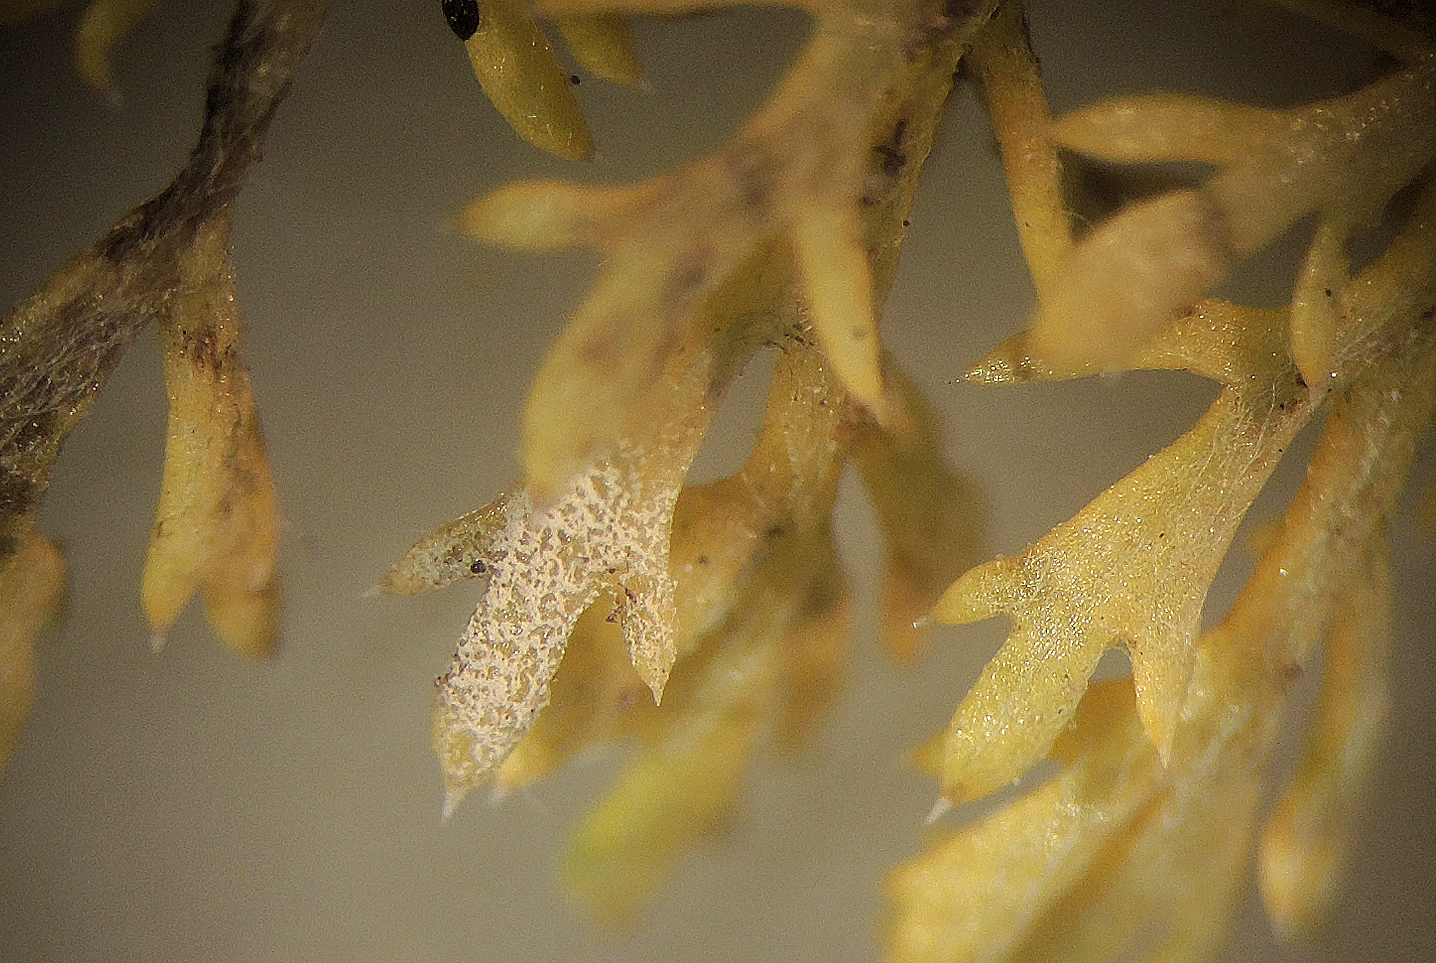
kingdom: Fungi
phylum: Basidiomycota
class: Agaricomycetes
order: Cantharellales
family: Ceratobasidiaceae
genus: Ceratobasidium
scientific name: Ceratobasidium ramicola
